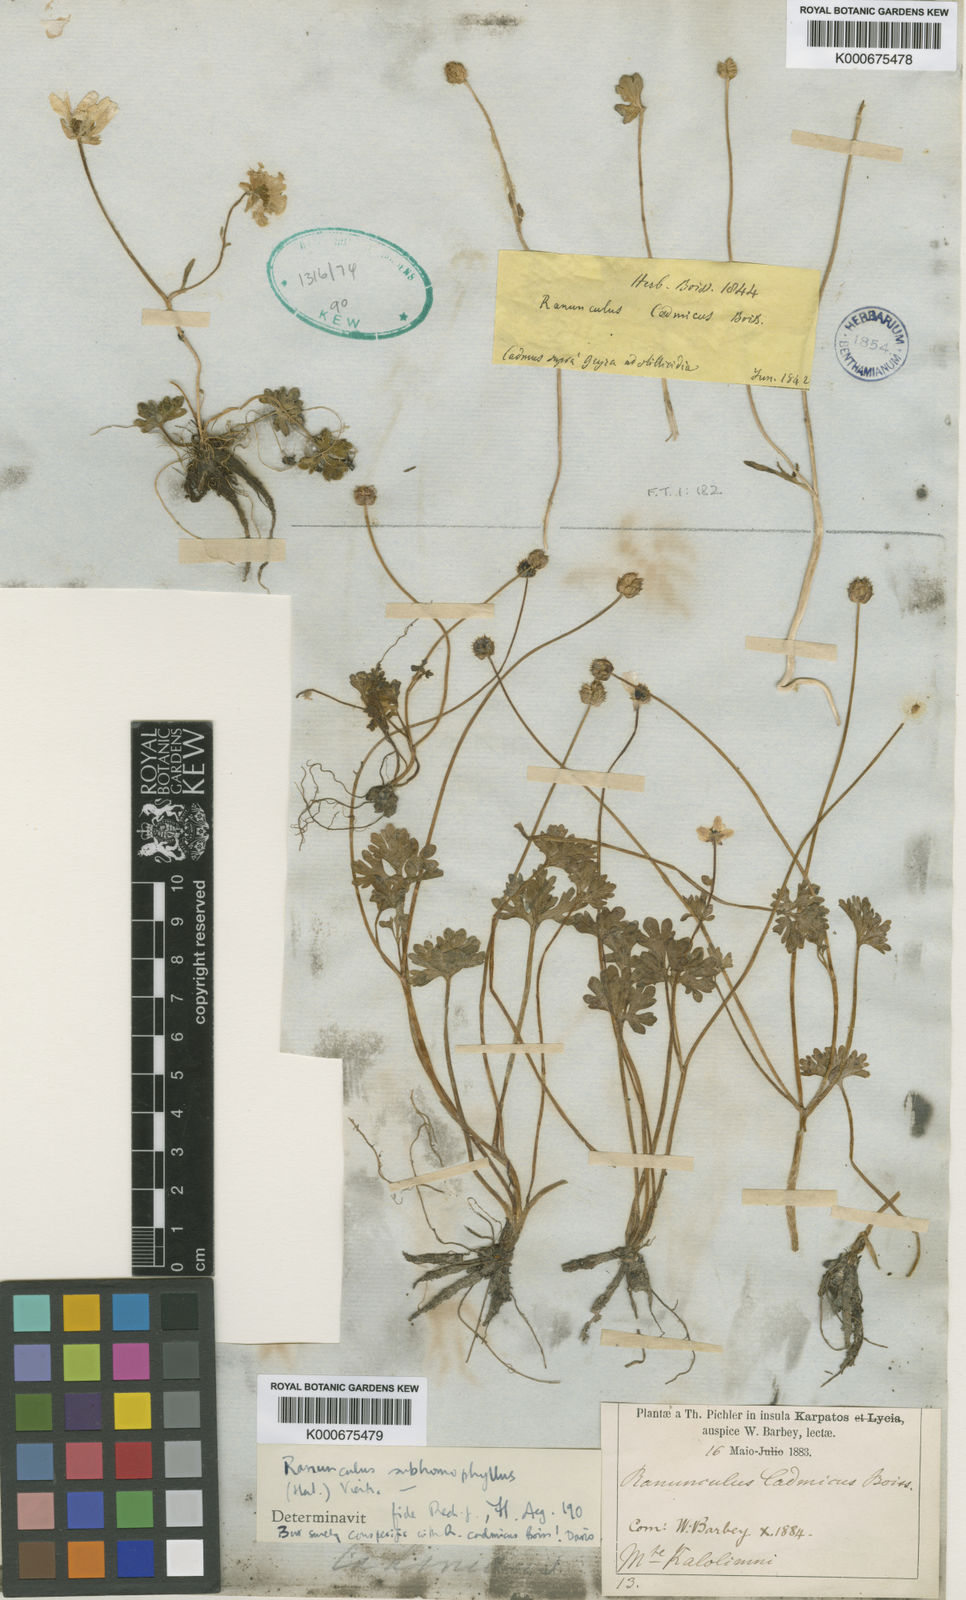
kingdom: Plantae
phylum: Tracheophyta
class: Magnoliopsida
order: Ranunculales
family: Ranunculaceae
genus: Ranunculus
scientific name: Ranunculus cadmicus
